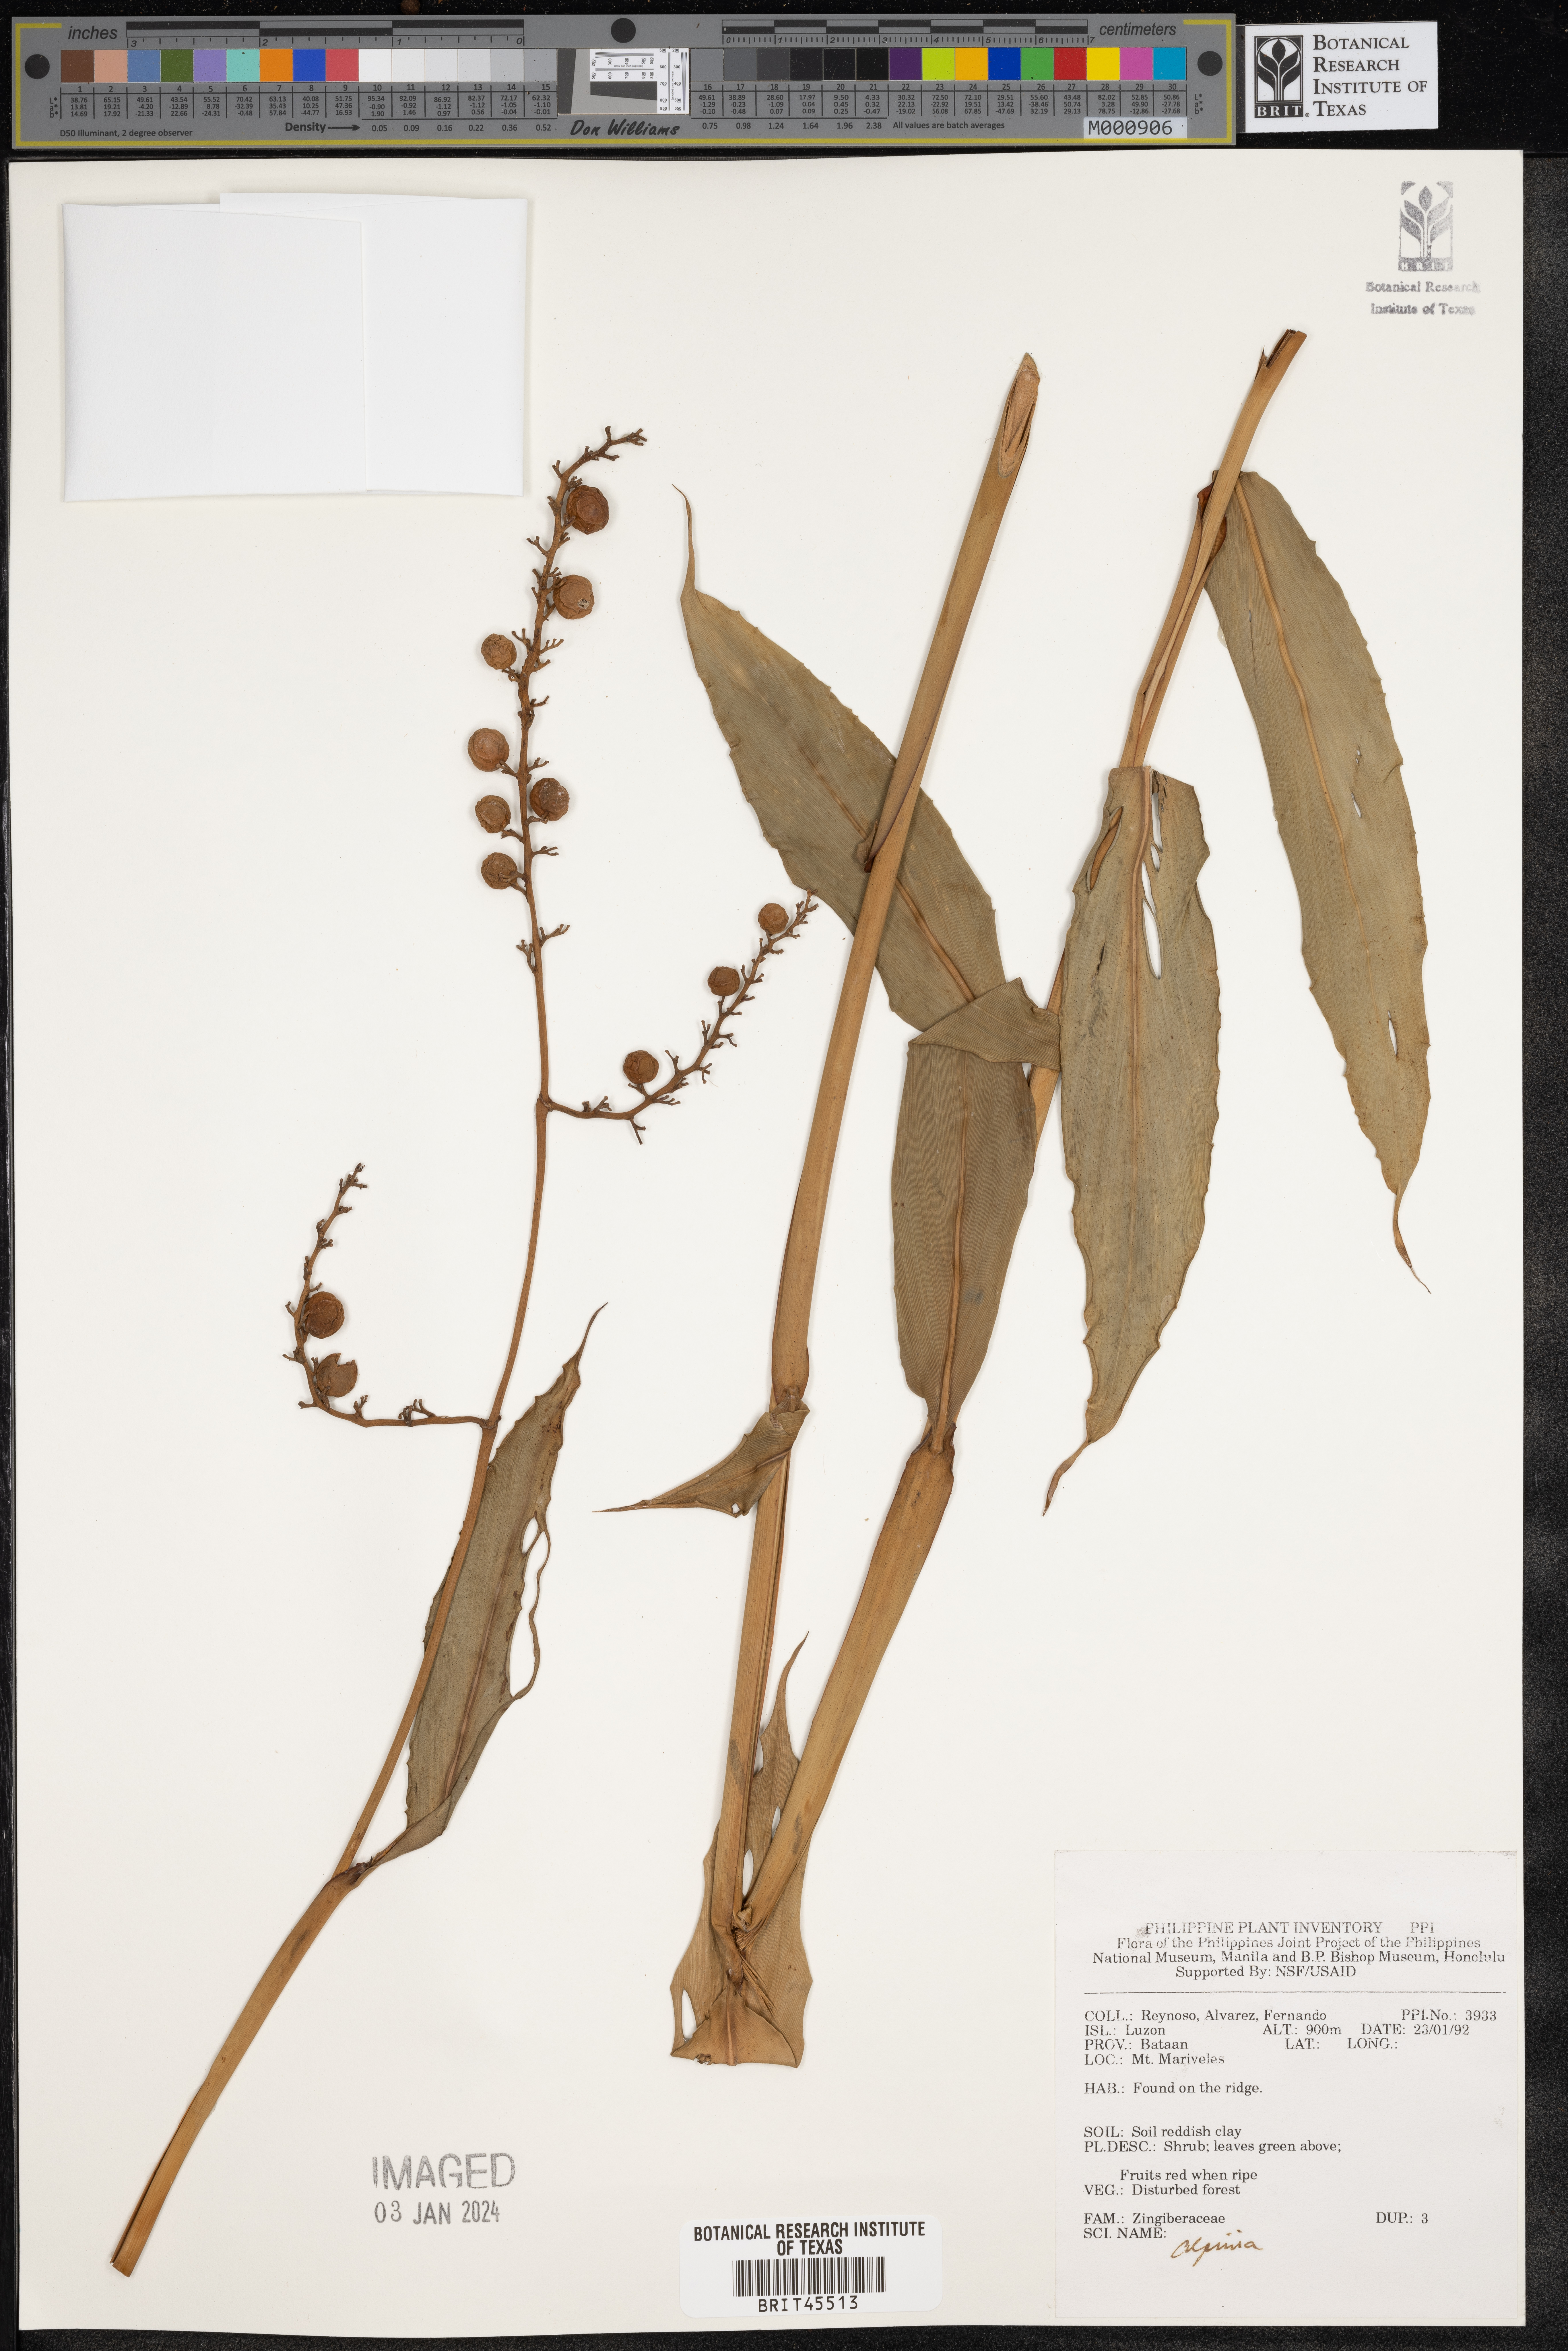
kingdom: Plantae
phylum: Tracheophyta
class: Liliopsida
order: Zingiberales
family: Zingiberaceae
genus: Alpinia
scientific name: Alpinia
